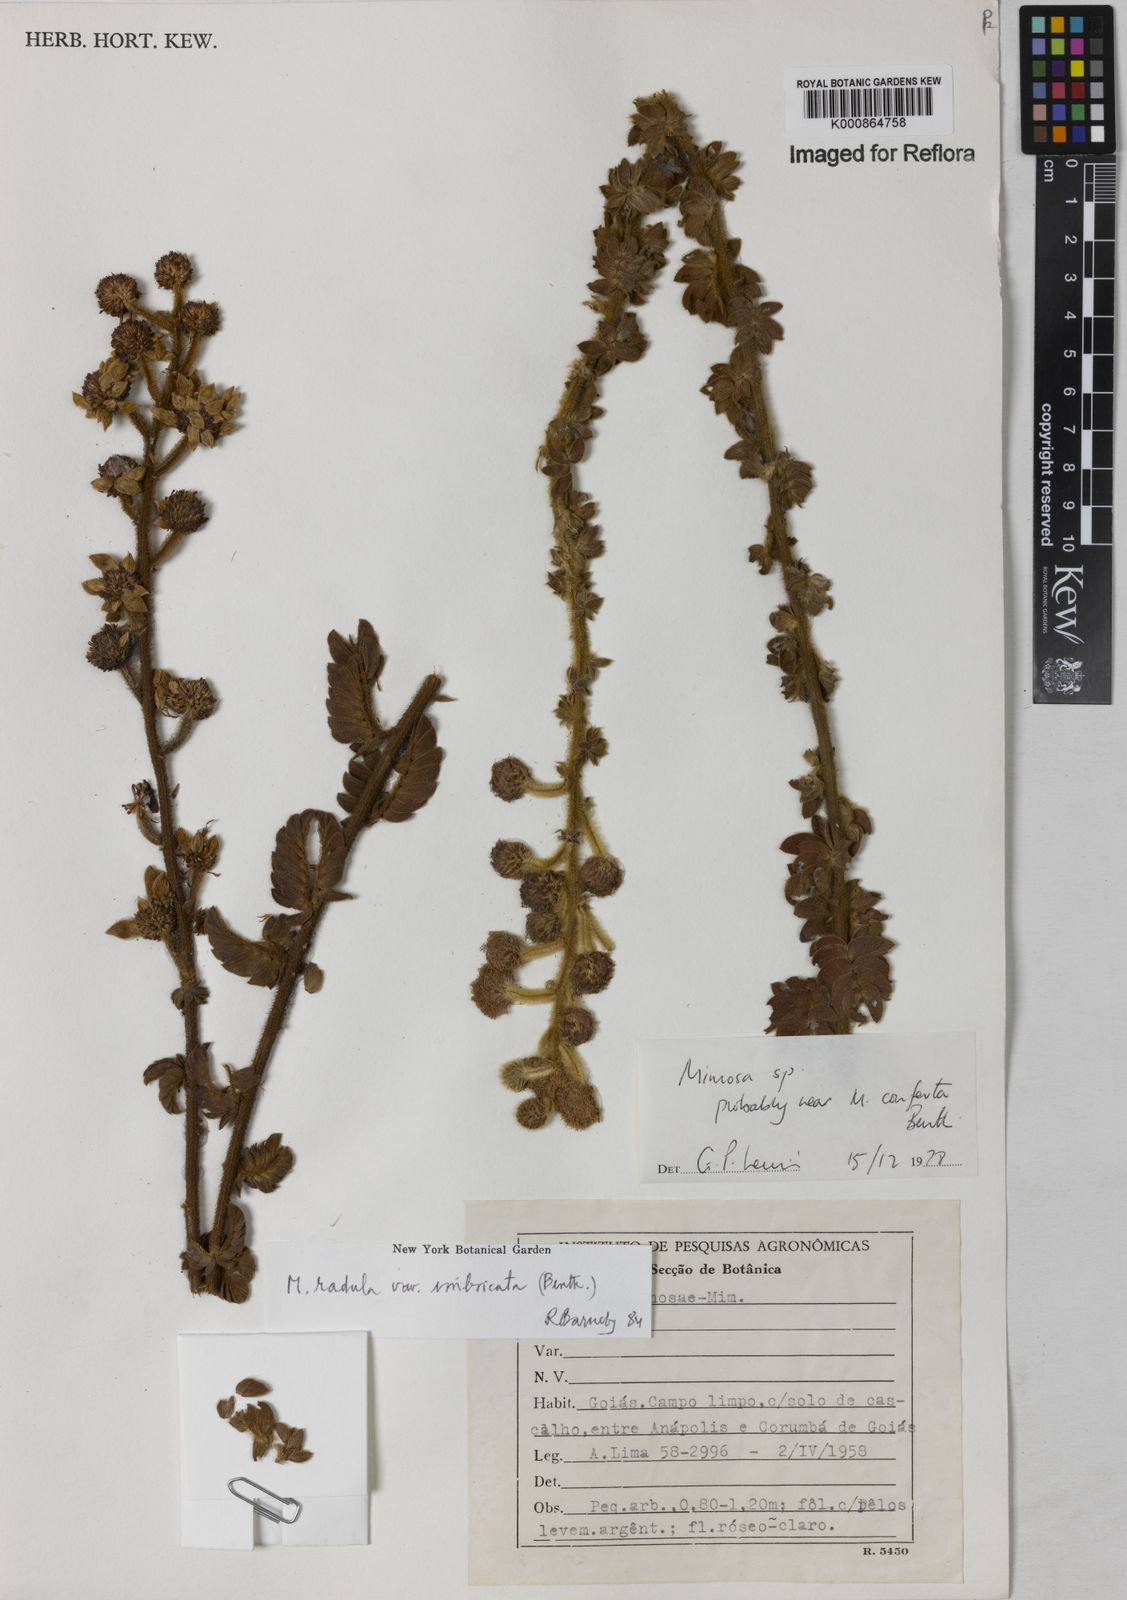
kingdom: Plantae
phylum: Tracheophyta
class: Magnoliopsida
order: Fabales
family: Fabaceae
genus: Mimosa
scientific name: Mimosa radula
